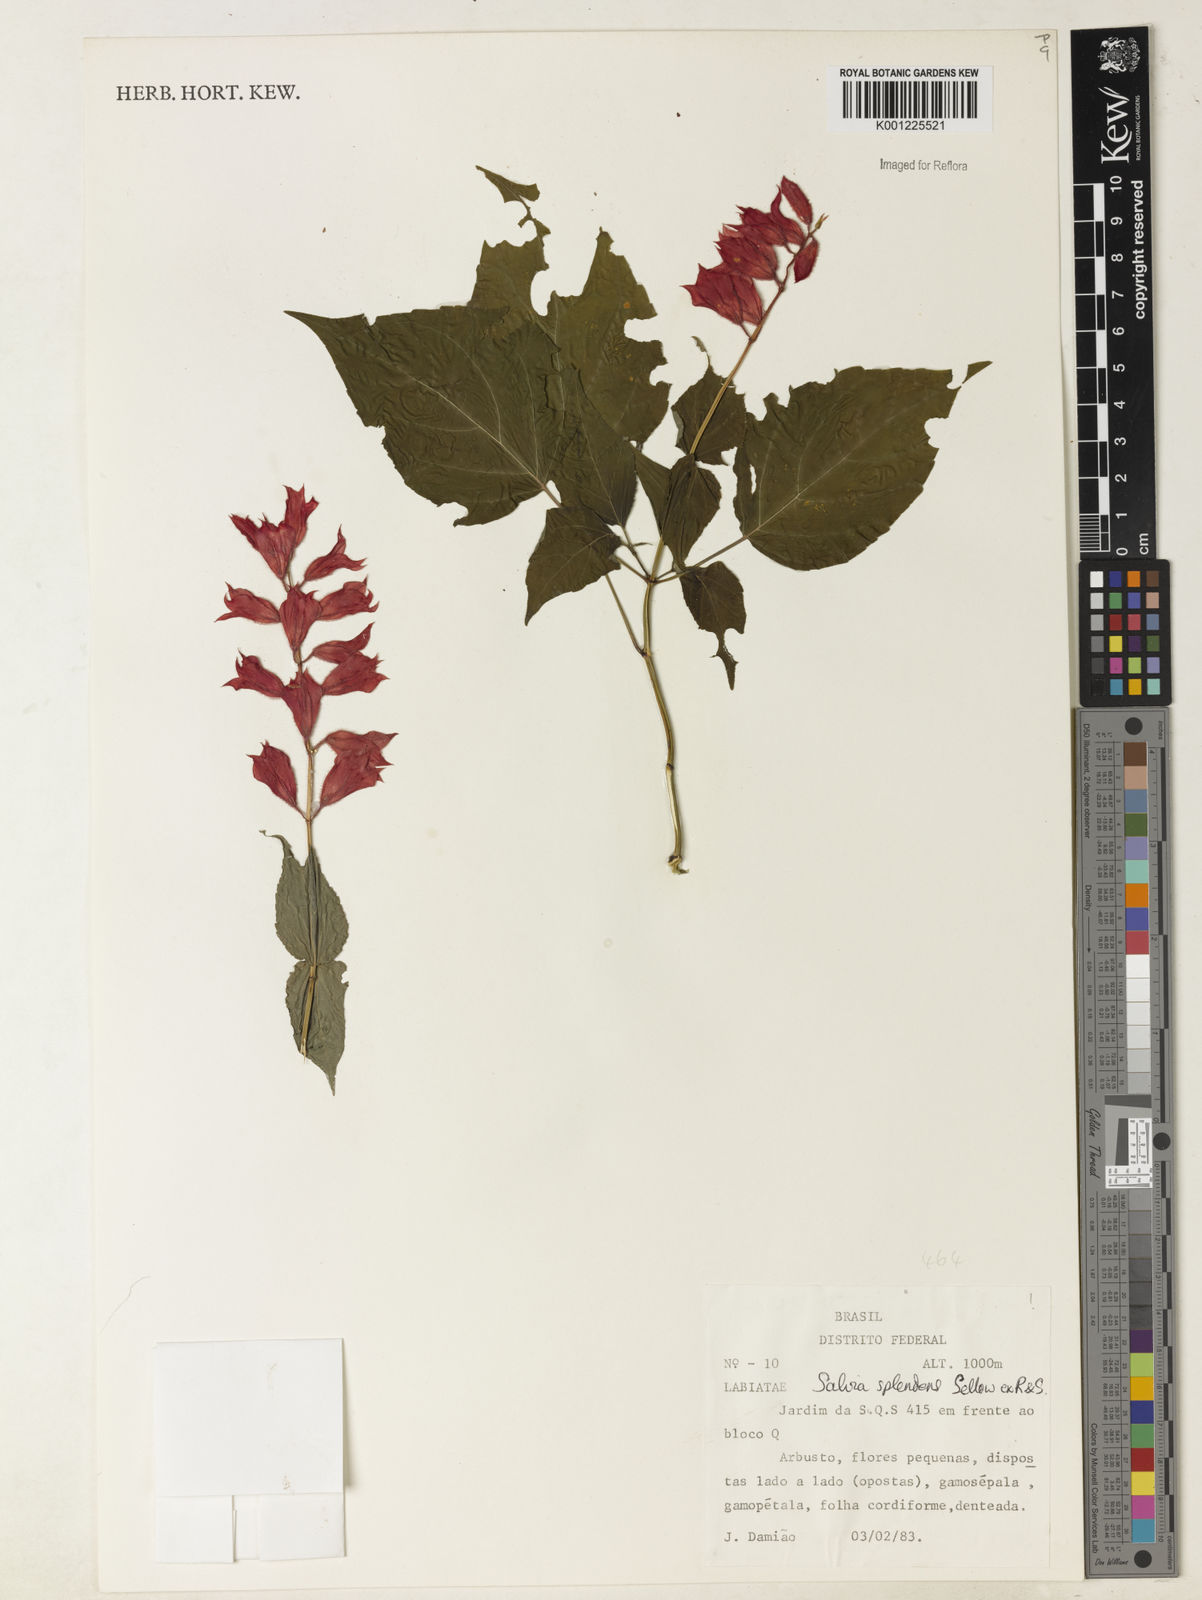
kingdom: Plantae
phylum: Tracheophyta
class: Magnoliopsida
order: Lamiales
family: Lamiaceae
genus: Salvia
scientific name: Salvia
